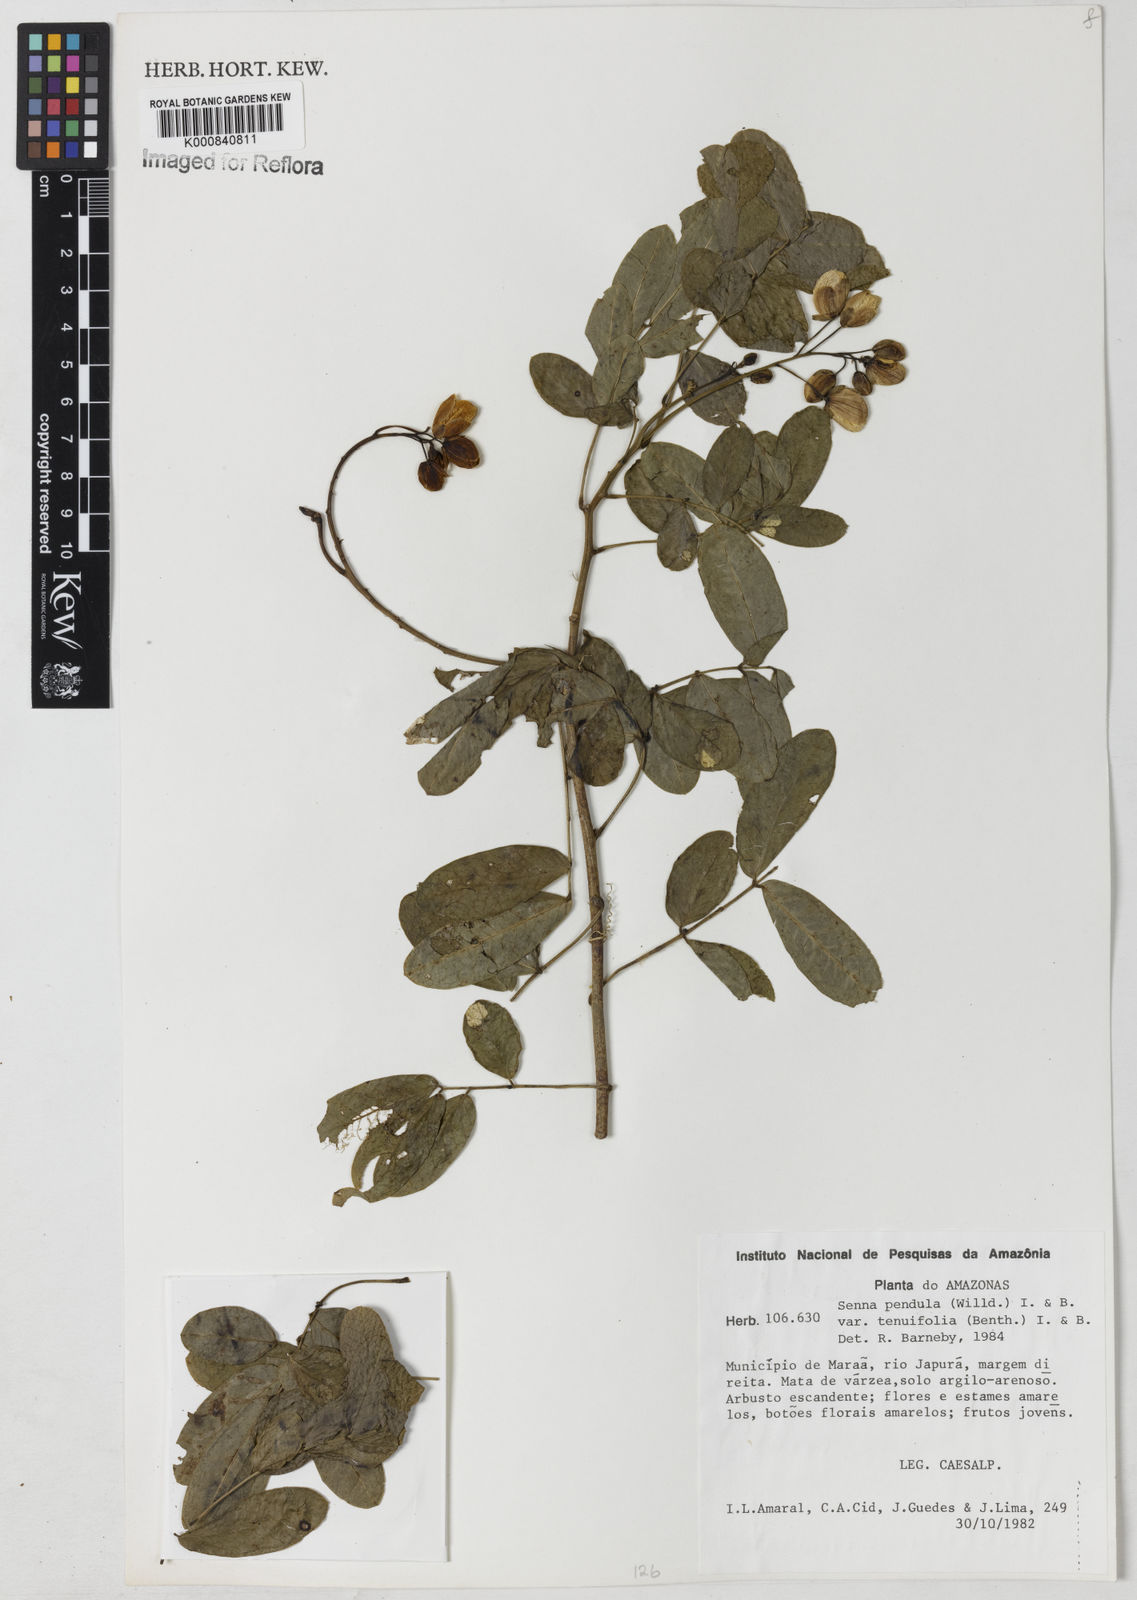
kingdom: Plantae
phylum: Tracheophyta
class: Magnoliopsida
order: Fabales
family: Fabaceae
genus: Senna
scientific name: Senna pendula
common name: Easter cassia
